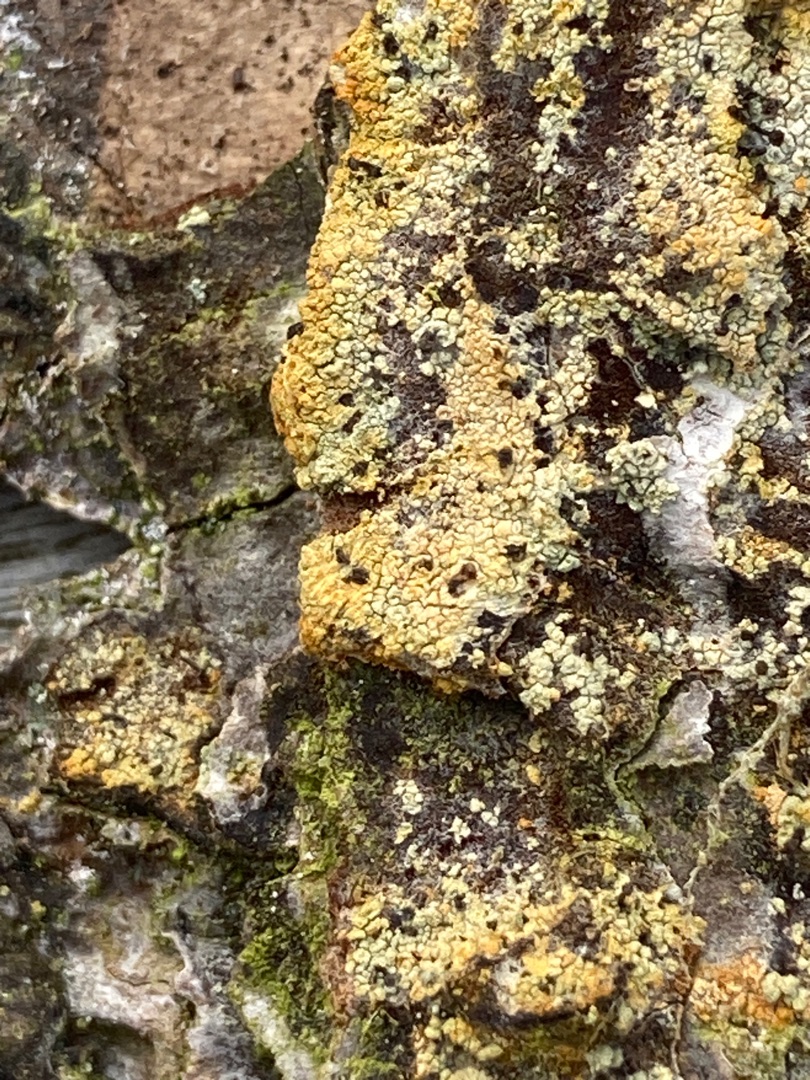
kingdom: Fungi
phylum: Ascomycota
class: Coniocybomycetes
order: Coniocybales
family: Coniocybaceae
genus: Chaenotheca
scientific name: Chaenotheca ferruginea
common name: Rustbrun knappenålslav
